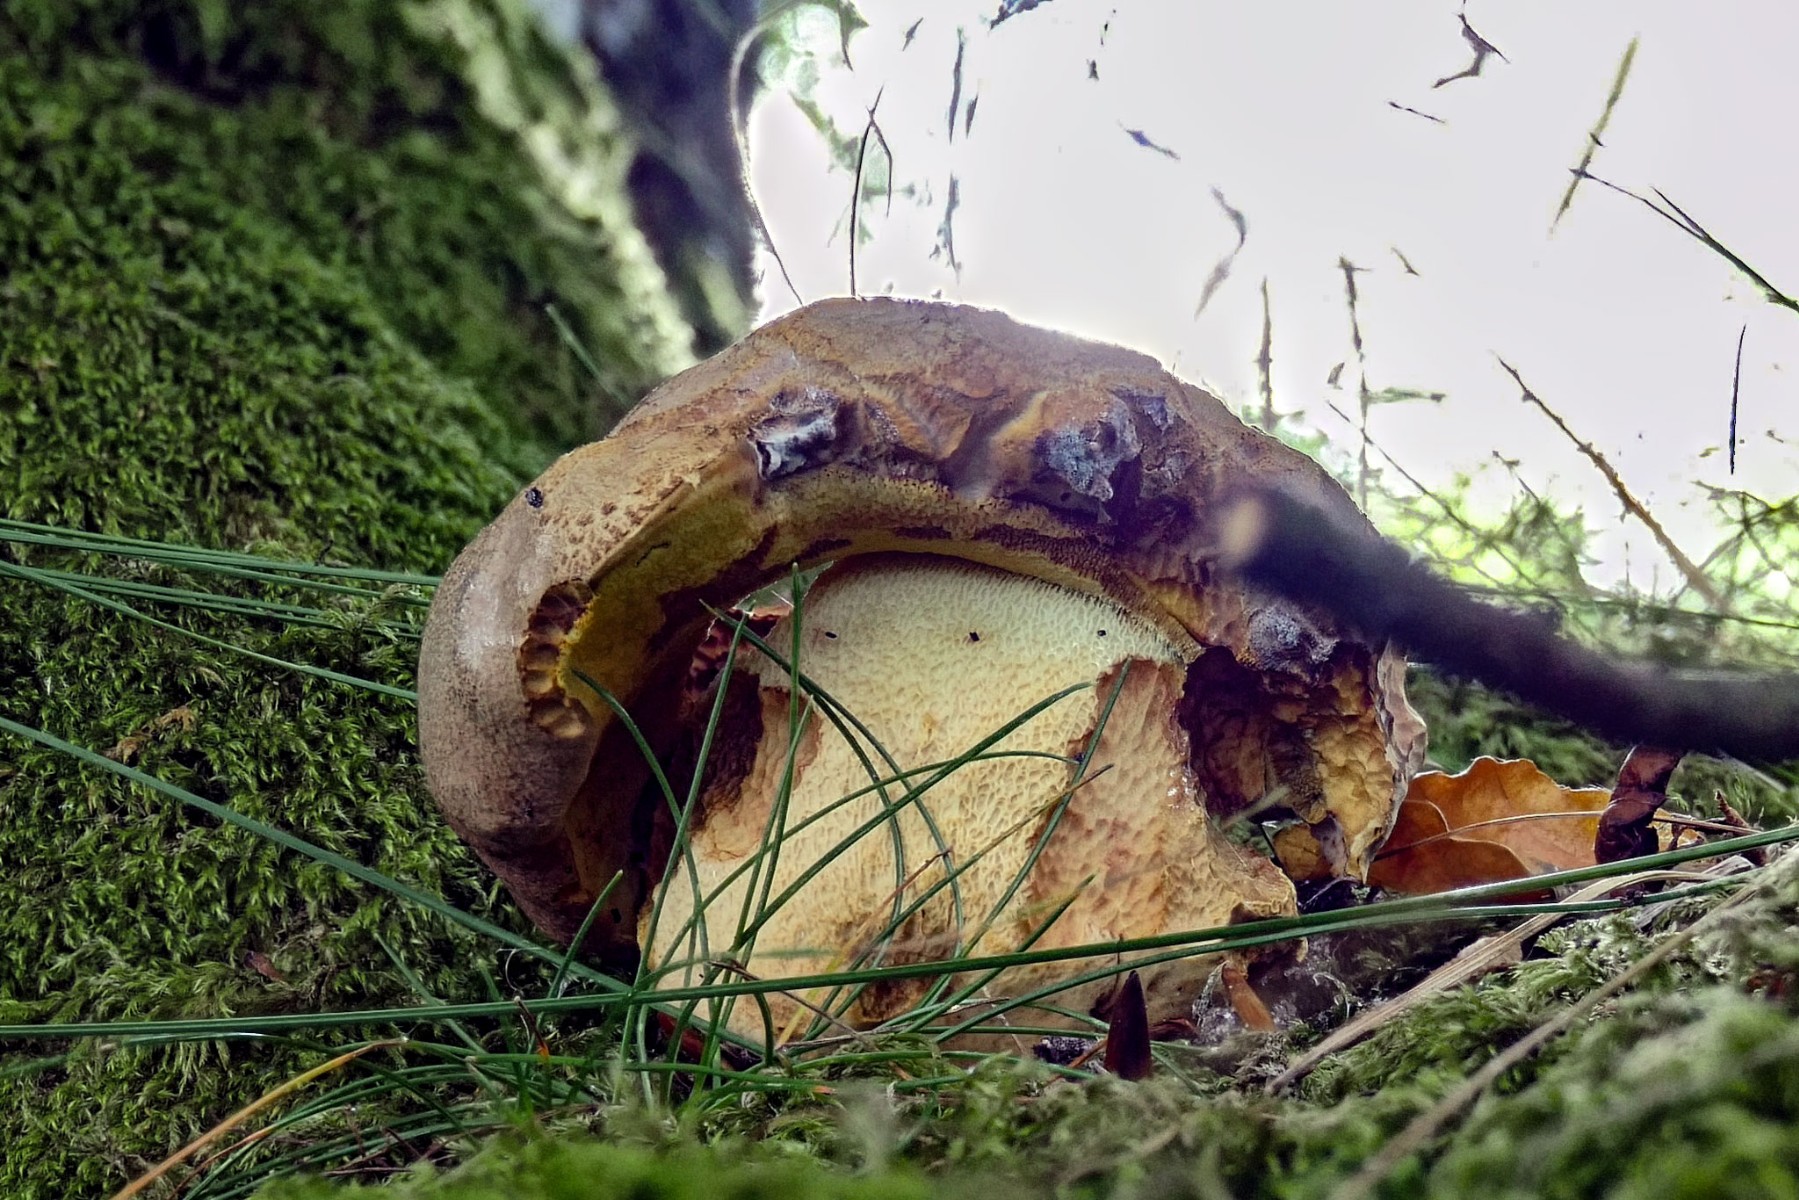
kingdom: Fungi
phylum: Basidiomycota
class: Agaricomycetes
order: Boletales
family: Boletaceae
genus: Butyriboletus
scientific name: Butyriboletus appendiculatus
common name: tenstokket rørhat
